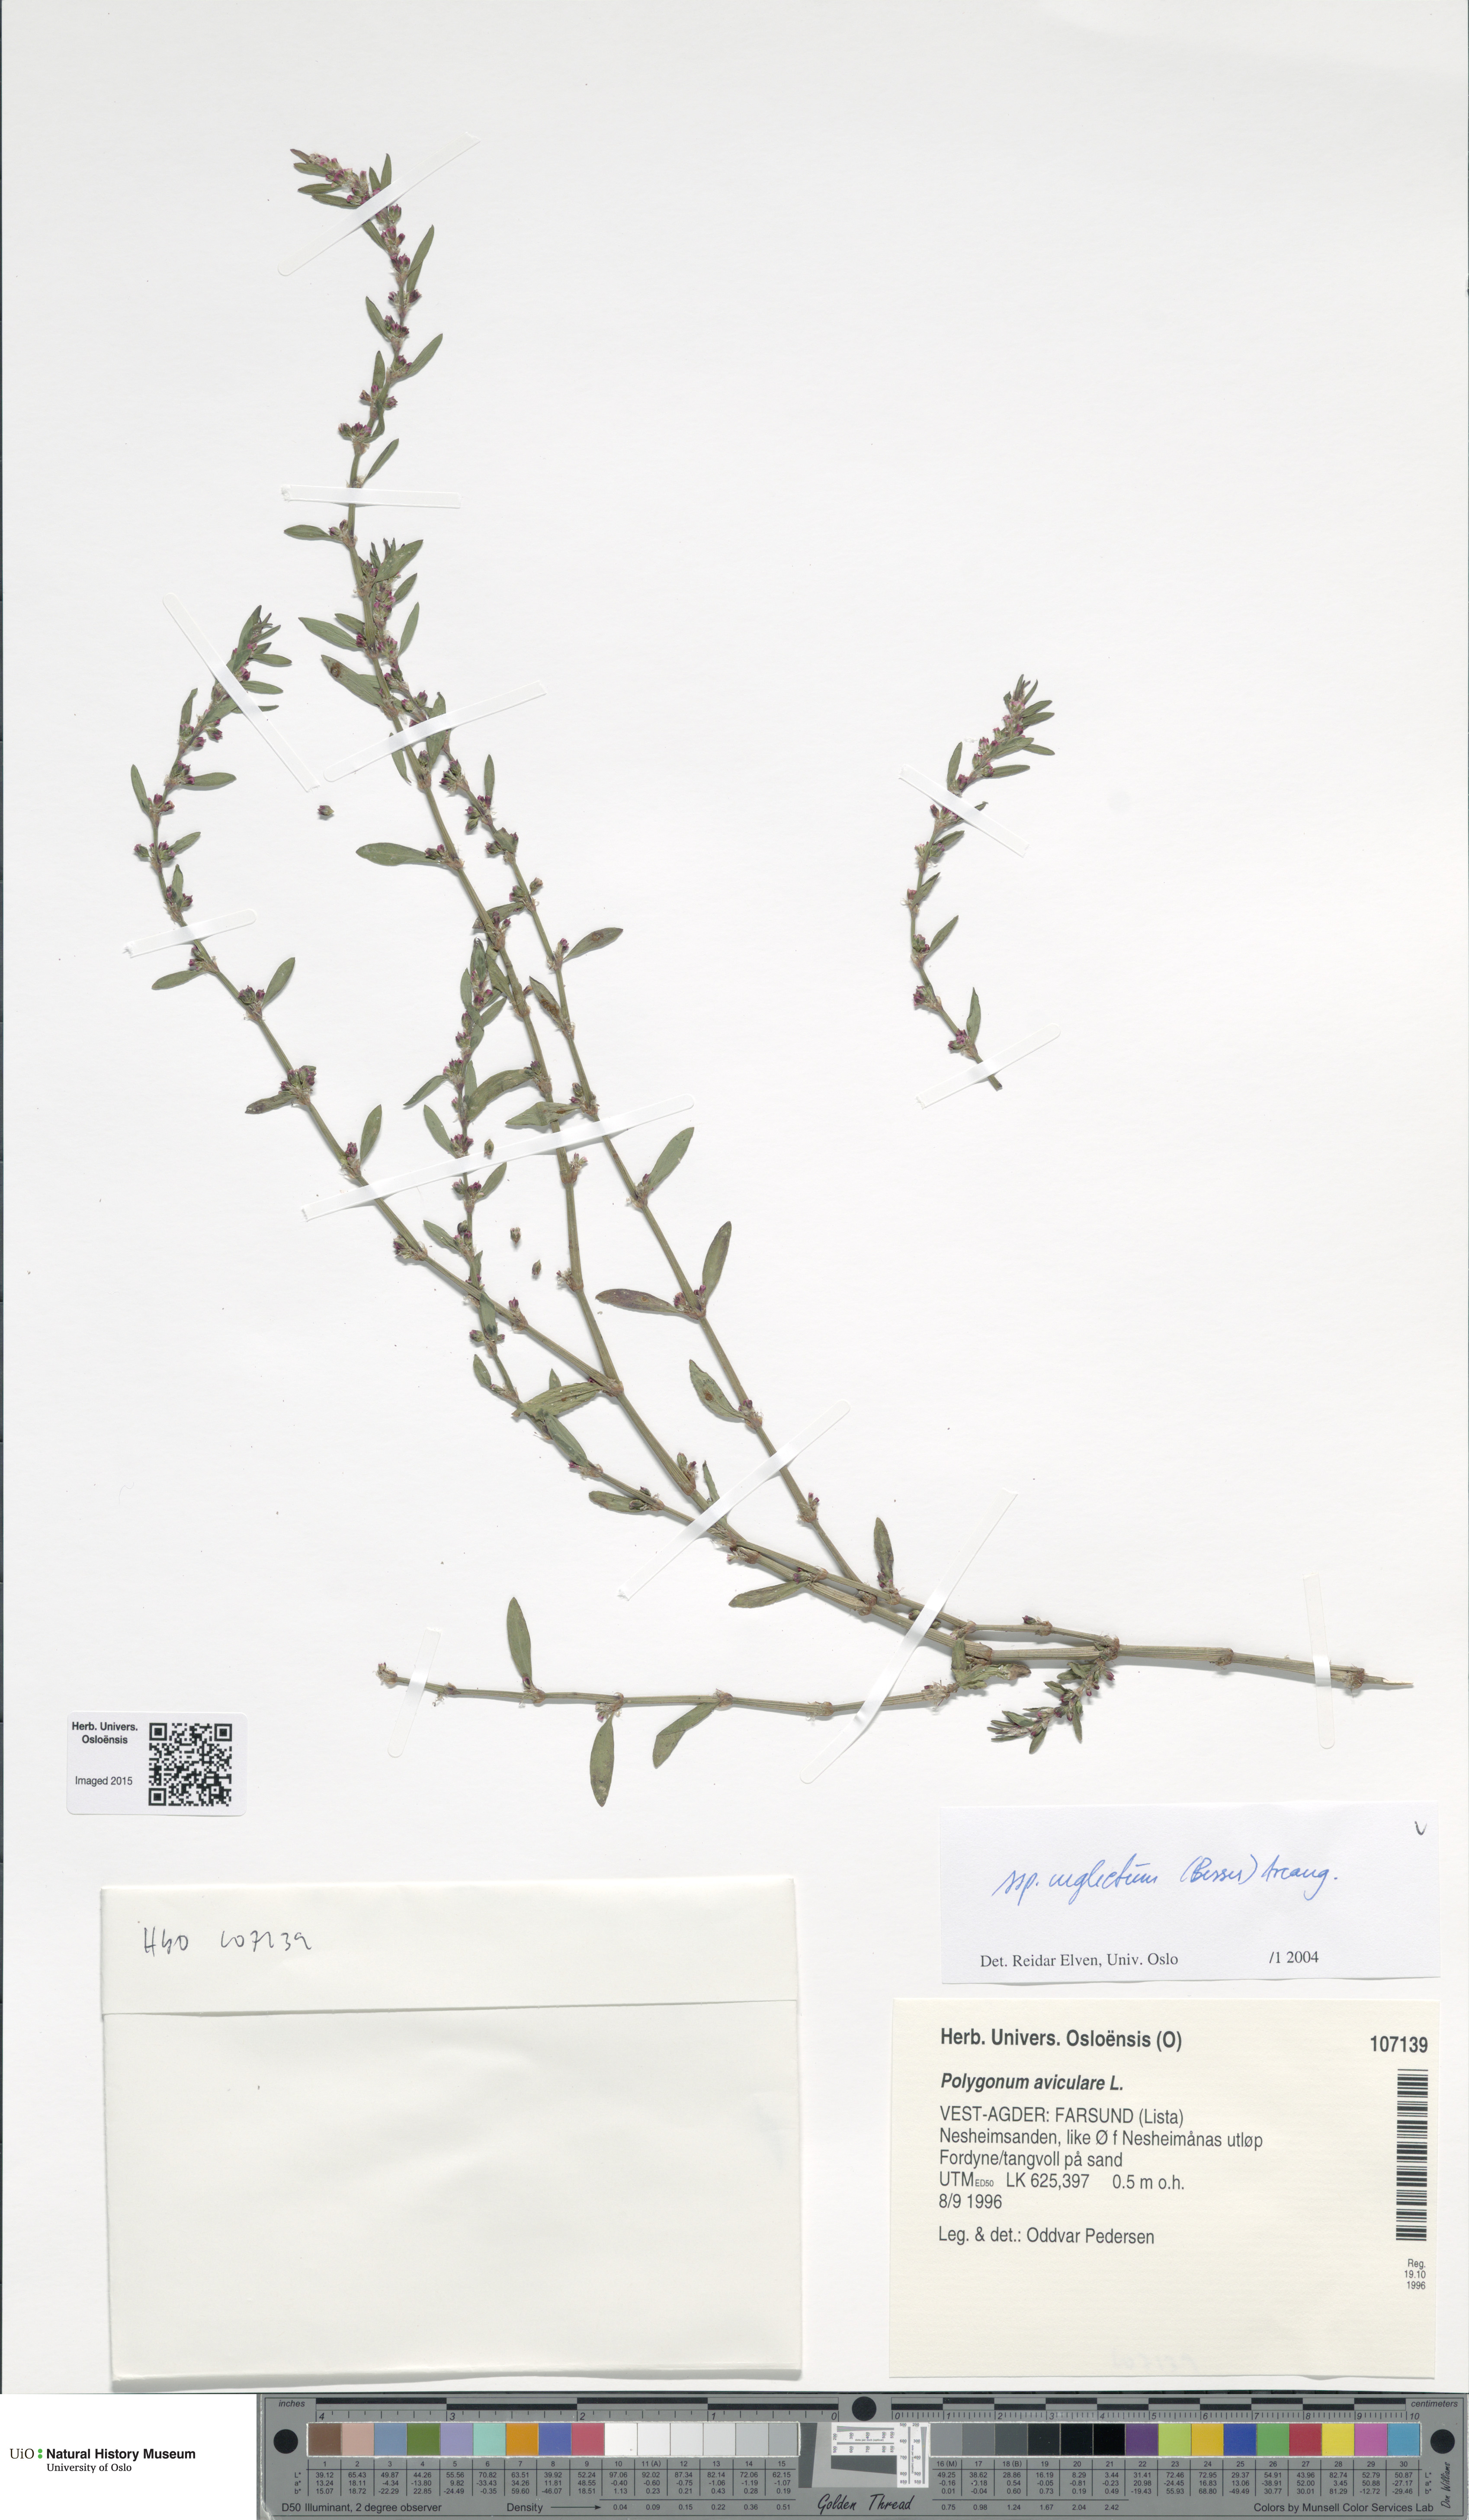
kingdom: Plantae
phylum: Tracheophyta
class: Magnoliopsida
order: Caryophyllales
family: Polygonaceae
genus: Polygonum
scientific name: Polygonum aviculare
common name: Prostrate knotweed
